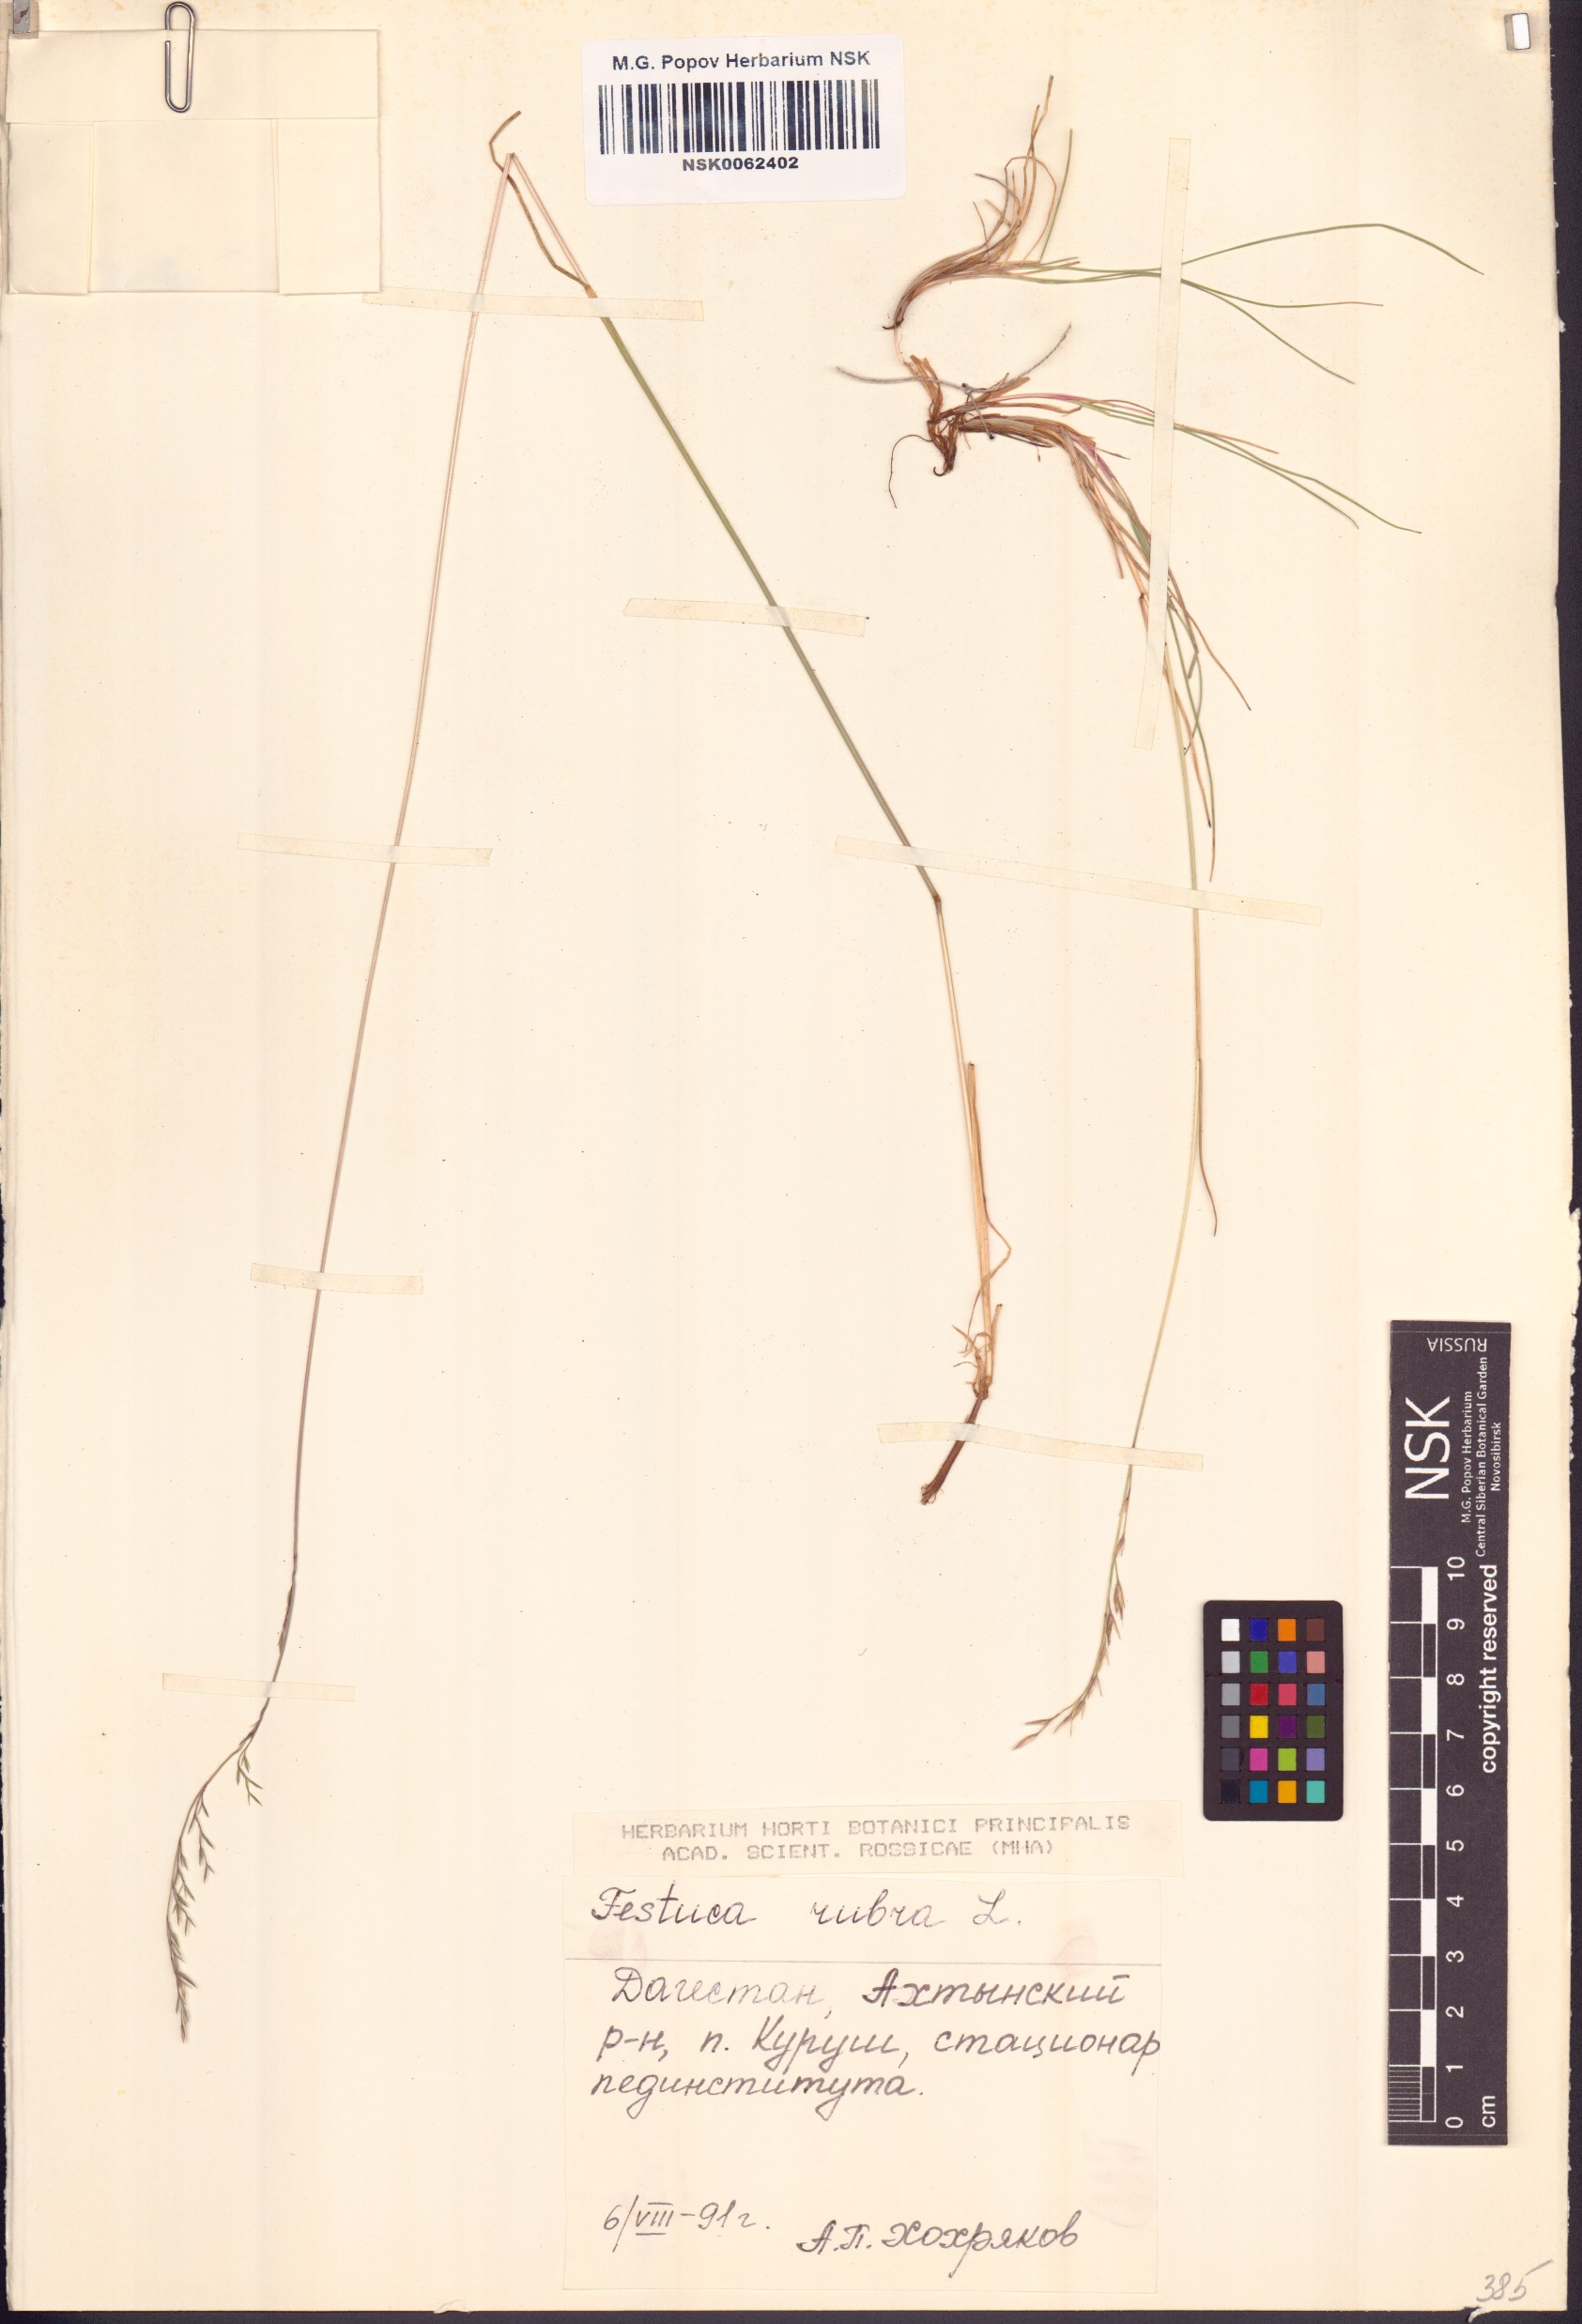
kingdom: Plantae
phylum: Tracheophyta
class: Liliopsida
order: Poales
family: Poaceae
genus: Festuca
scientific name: Festuca rubra
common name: Red fescue
